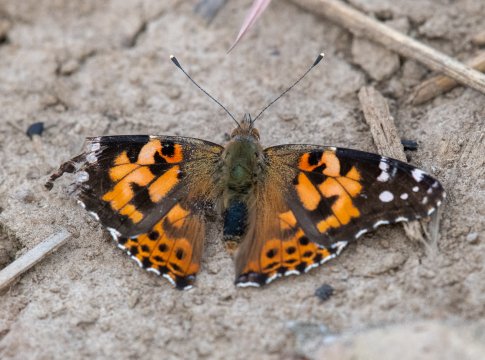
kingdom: Animalia
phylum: Arthropoda
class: Insecta
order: Lepidoptera
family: Nymphalidae
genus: Vanessa
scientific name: Vanessa cardui
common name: Painted Lady
